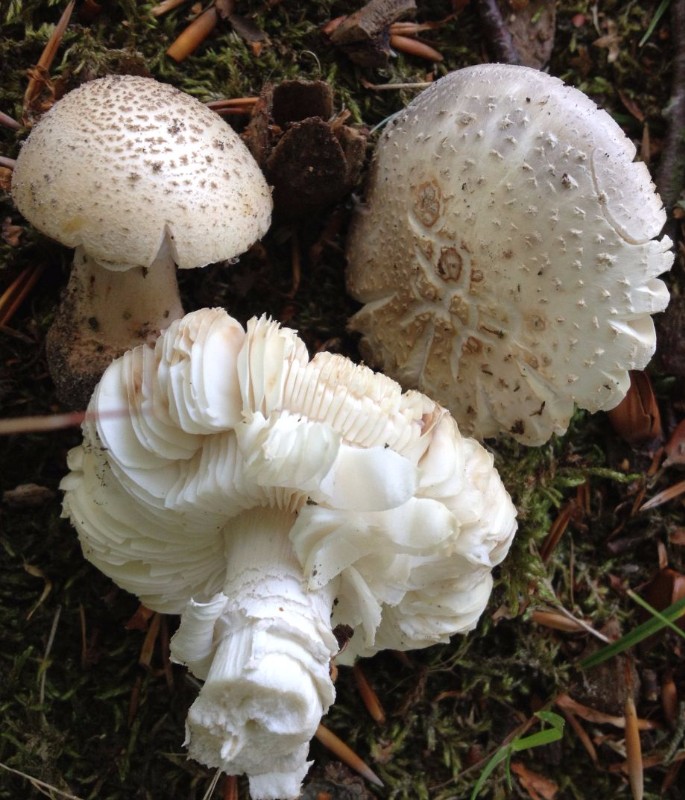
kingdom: Fungi
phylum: Basidiomycota
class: Agaricomycetes
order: Agaricales
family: Amanitaceae
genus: Amanita
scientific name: Amanita rubescens
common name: rødmende fluesvamp
